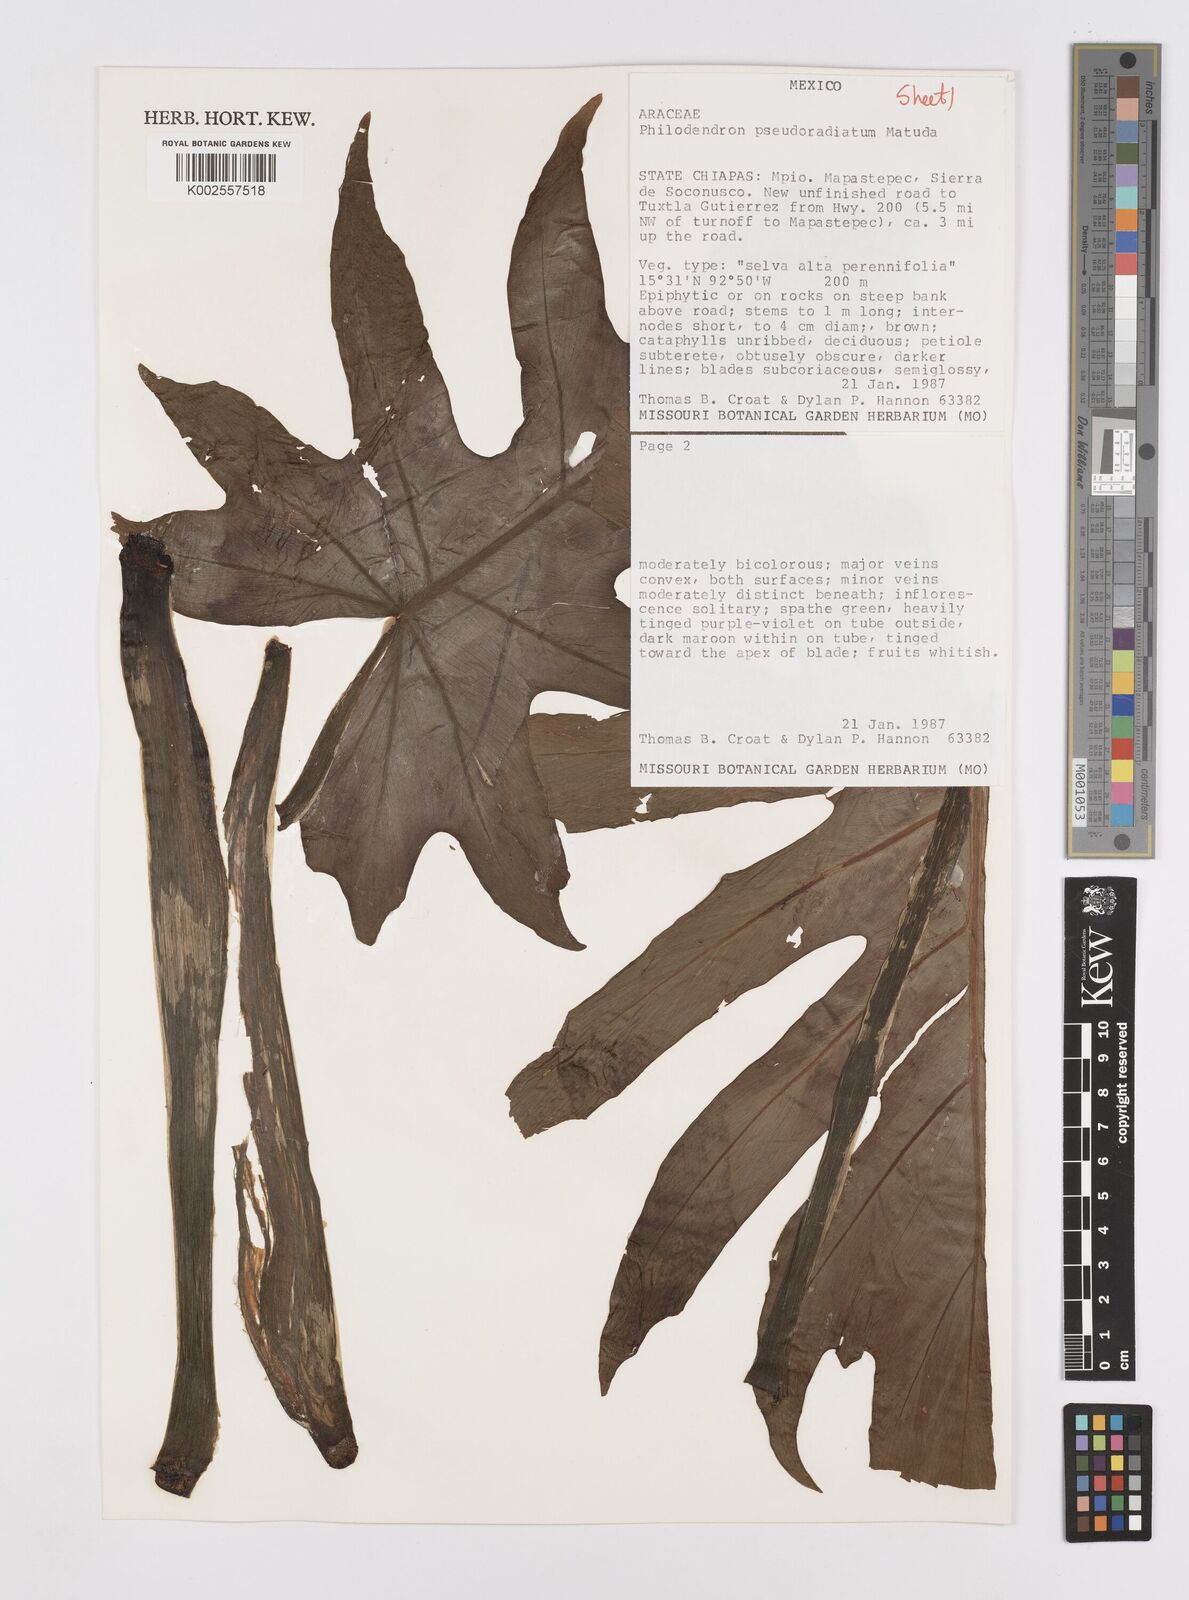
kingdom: Plantae
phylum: Tracheophyta
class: Liliopsida
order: Alismatales
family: Araceae
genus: Philodendron
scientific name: Philodendron radiatum
